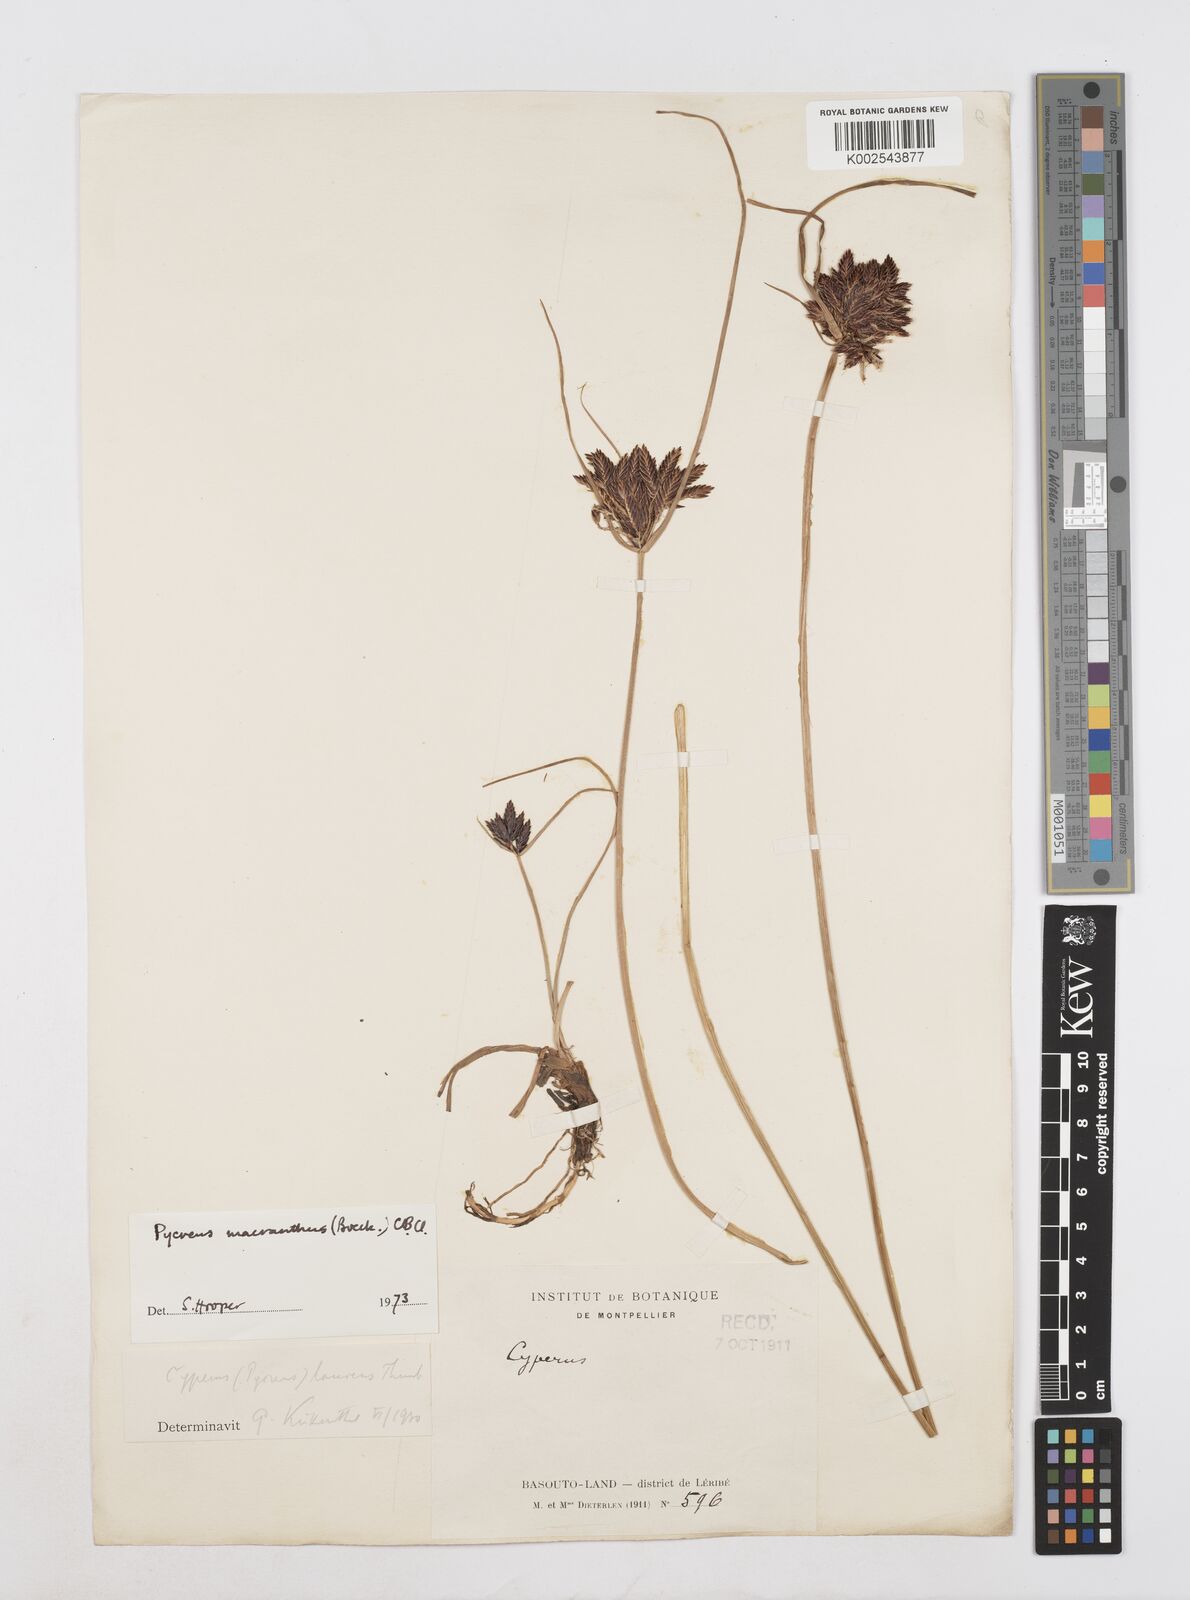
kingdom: Plantae
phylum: Tracheophyta
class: Liliopsida
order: Poales
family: Cyperaceae
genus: Cyperus
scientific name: Cyperus nigricans
